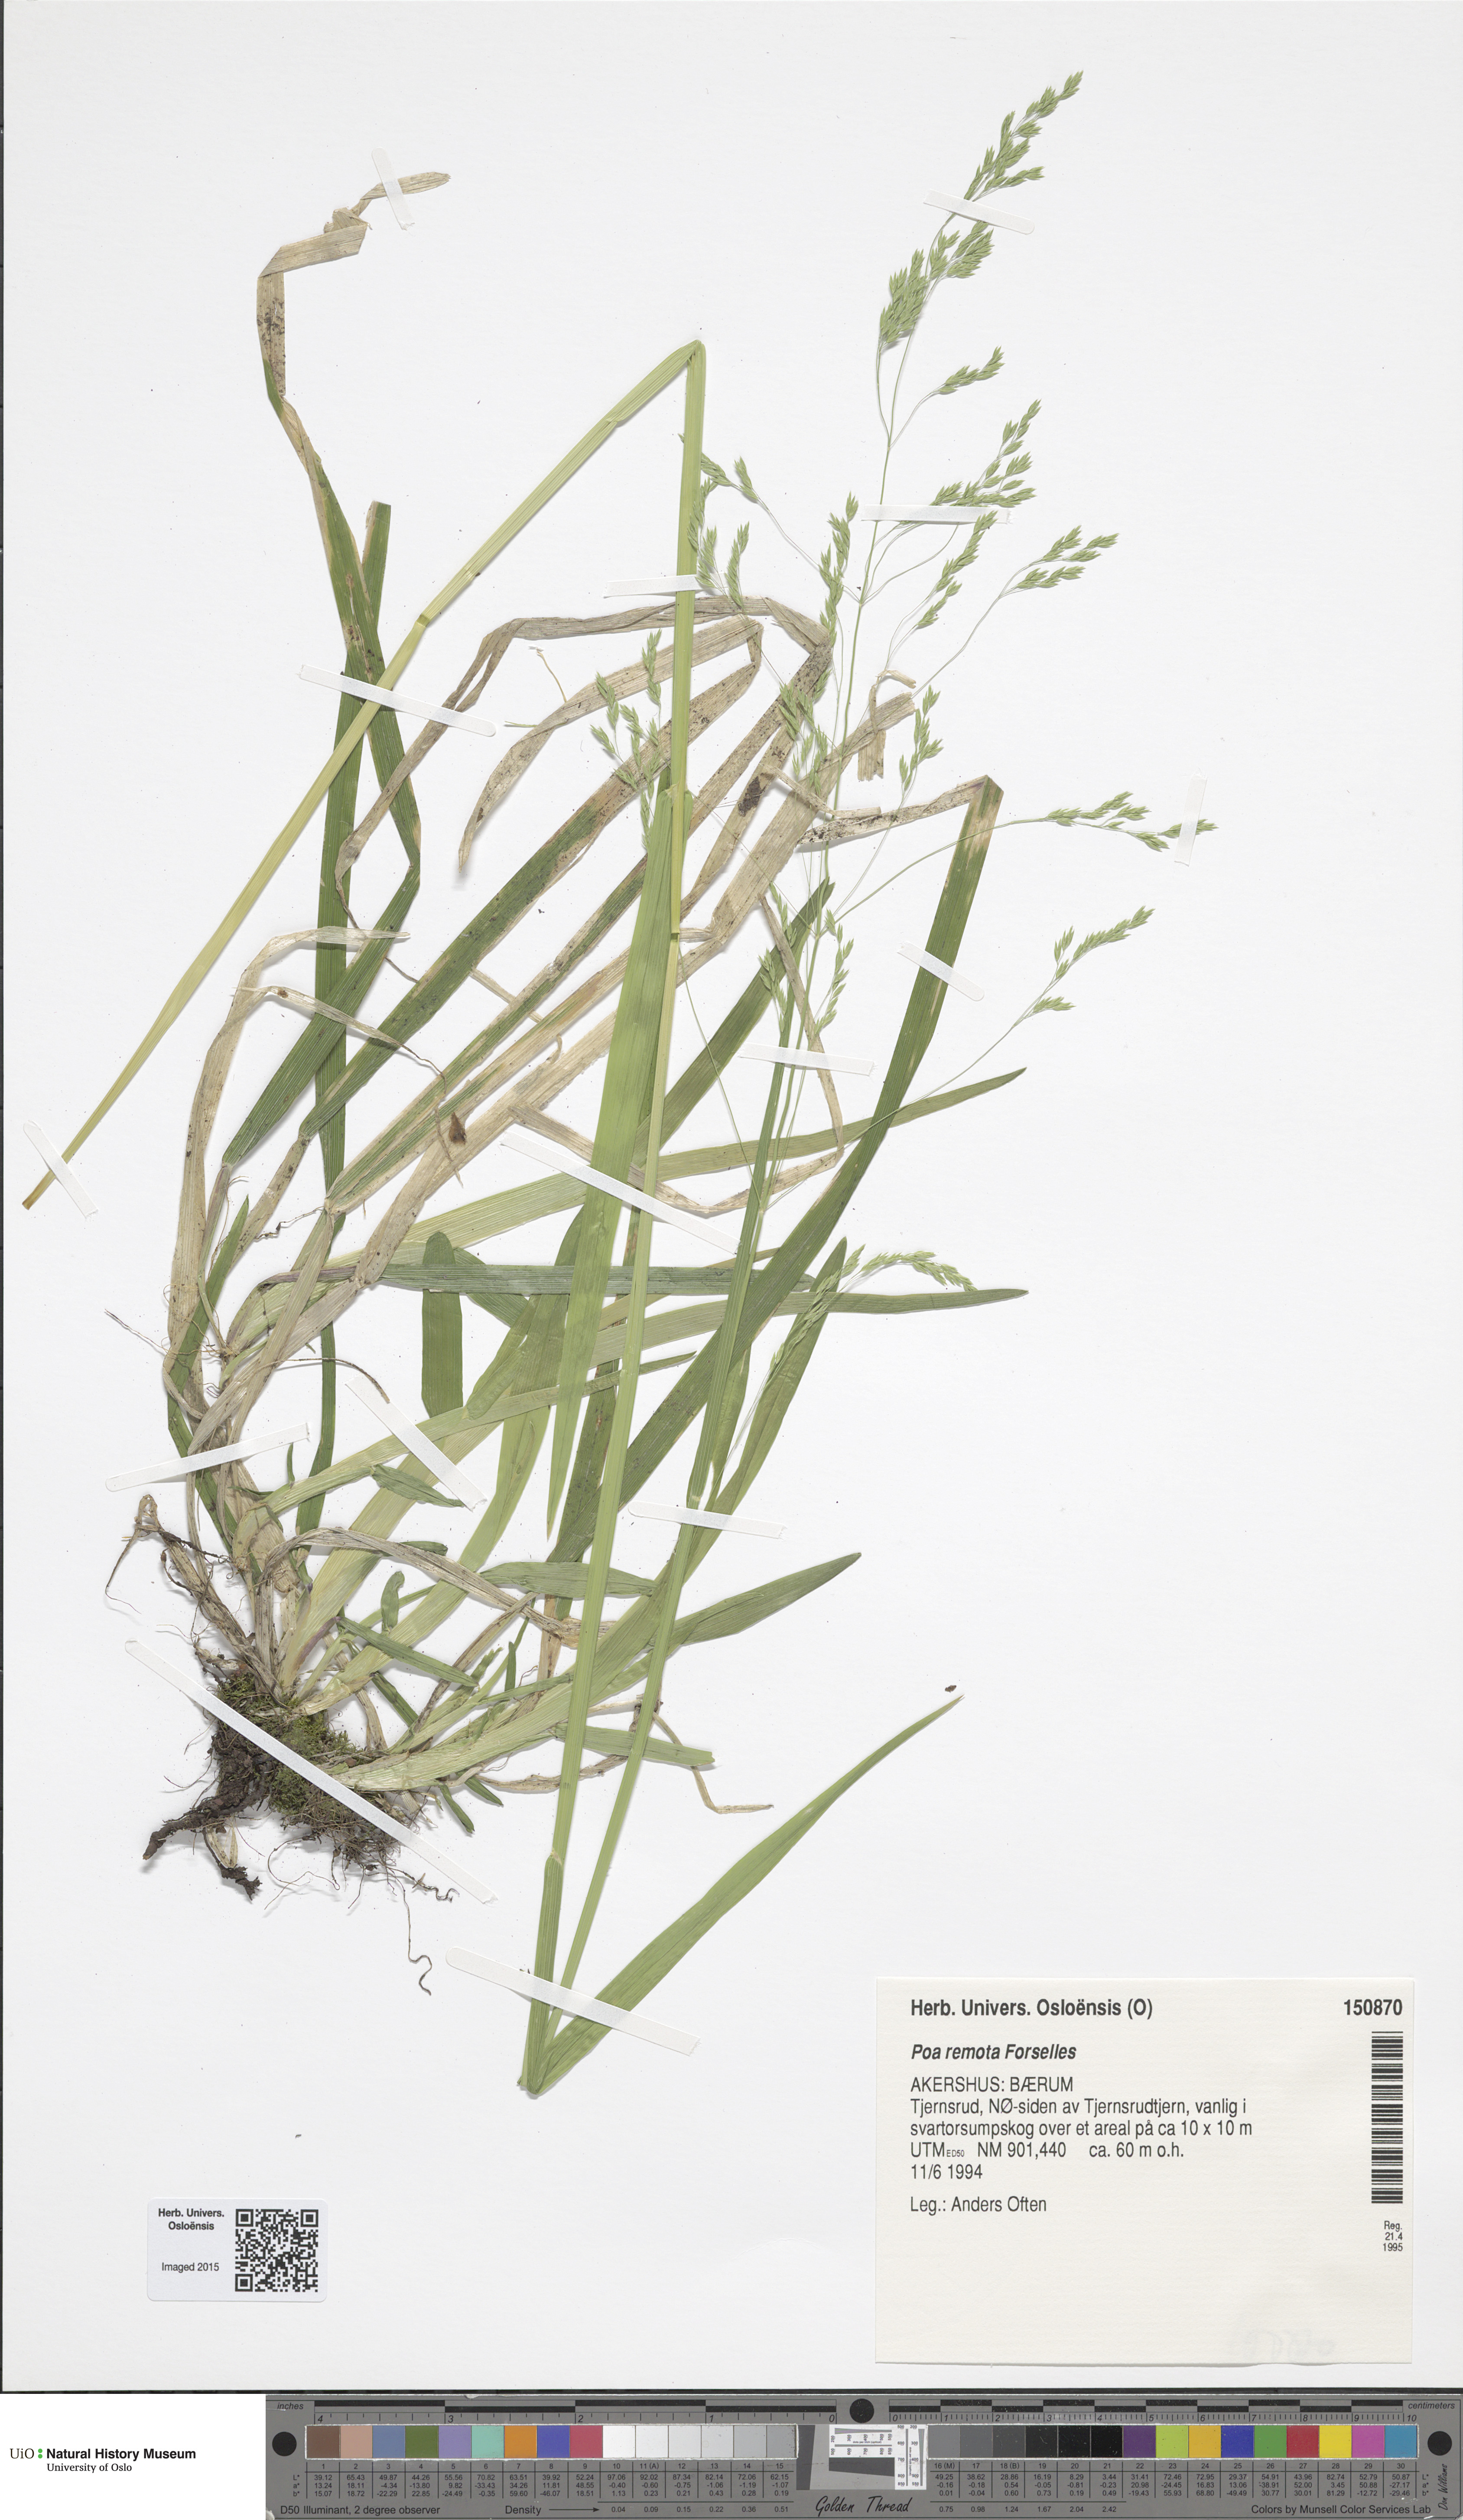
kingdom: Plantae
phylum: Tracheophyta
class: Liliopsida
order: Poales
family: Poaceae
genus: Poa
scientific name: Poa remota
